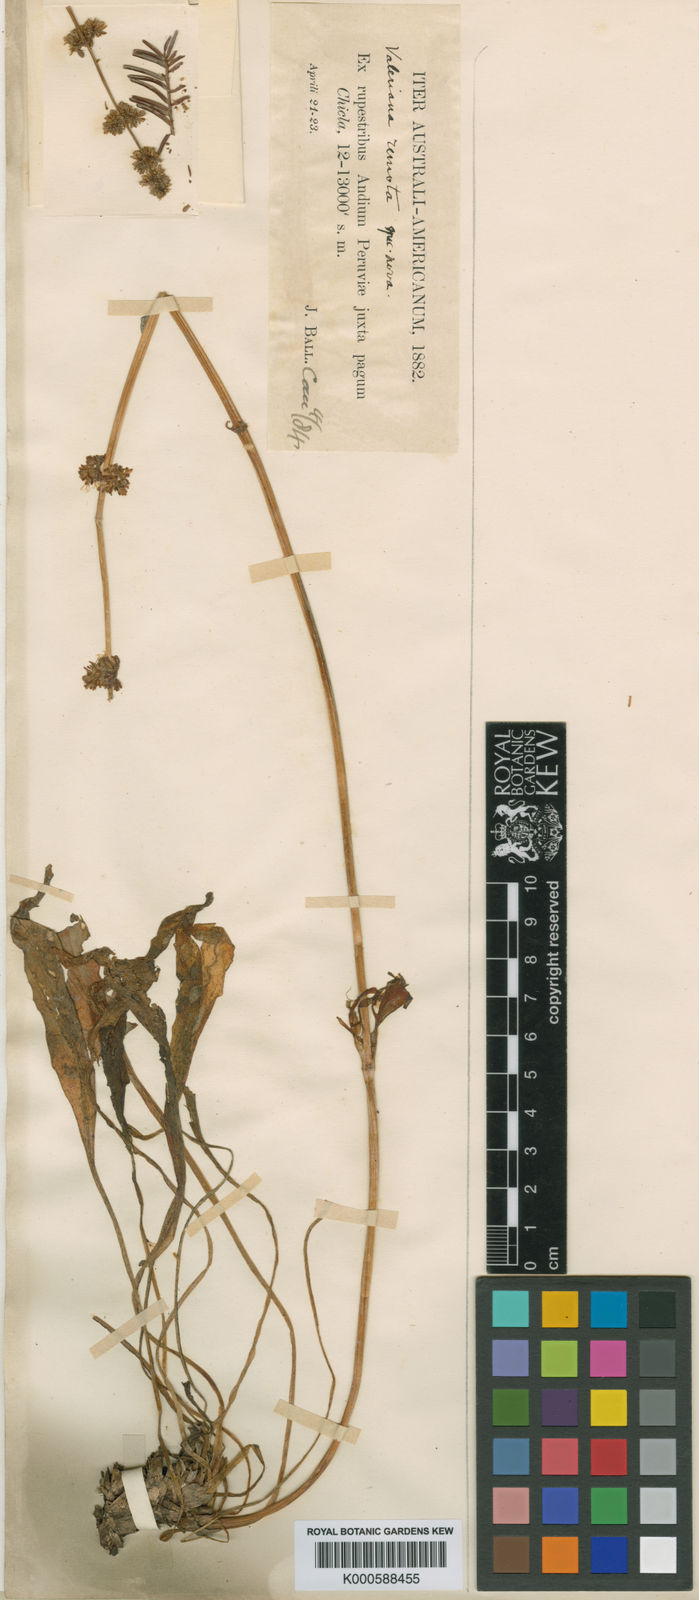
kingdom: Plantae
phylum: Tracheophyta
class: Magnoliopsida
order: Dipsacales
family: Caprifoliaceae
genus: Valeriana
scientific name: Valeriana lyrata
